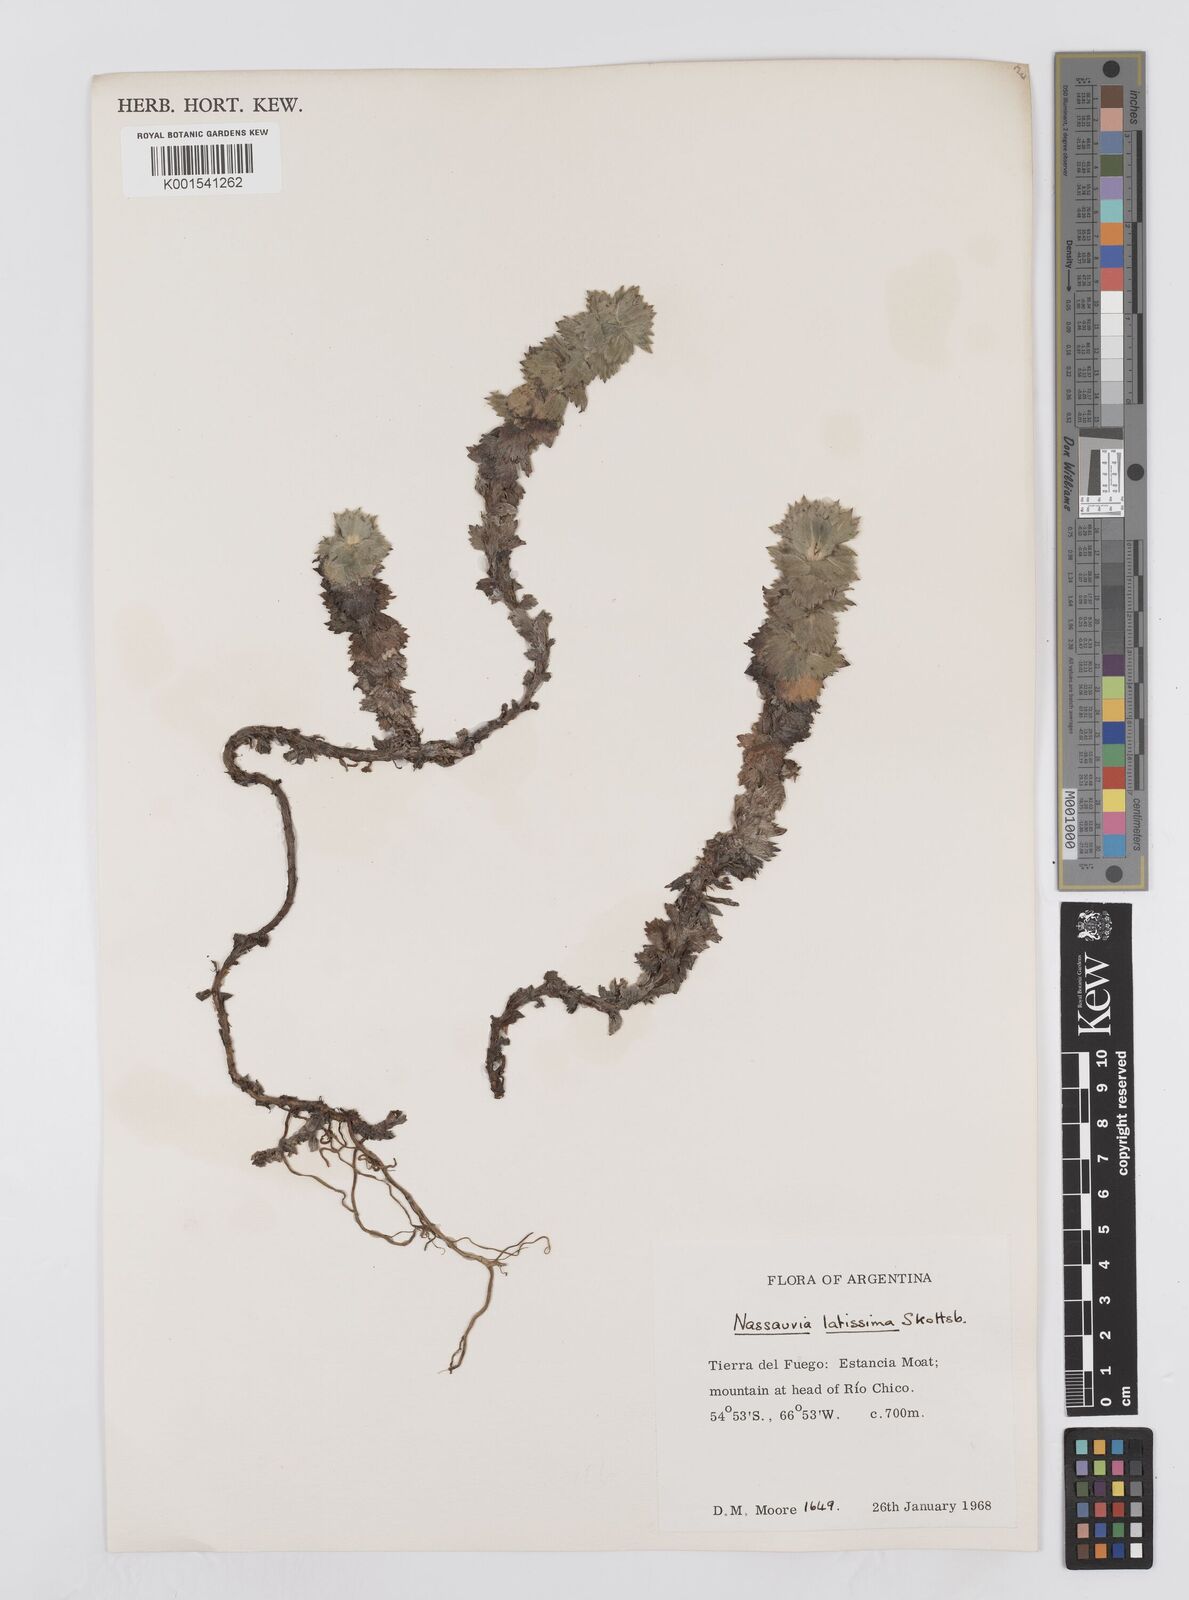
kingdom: Plantae
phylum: Tracheophyta
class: Magnoliopsida
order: Asterales
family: Asteraceae
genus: Nassauvia
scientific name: Nassauvia latissima
